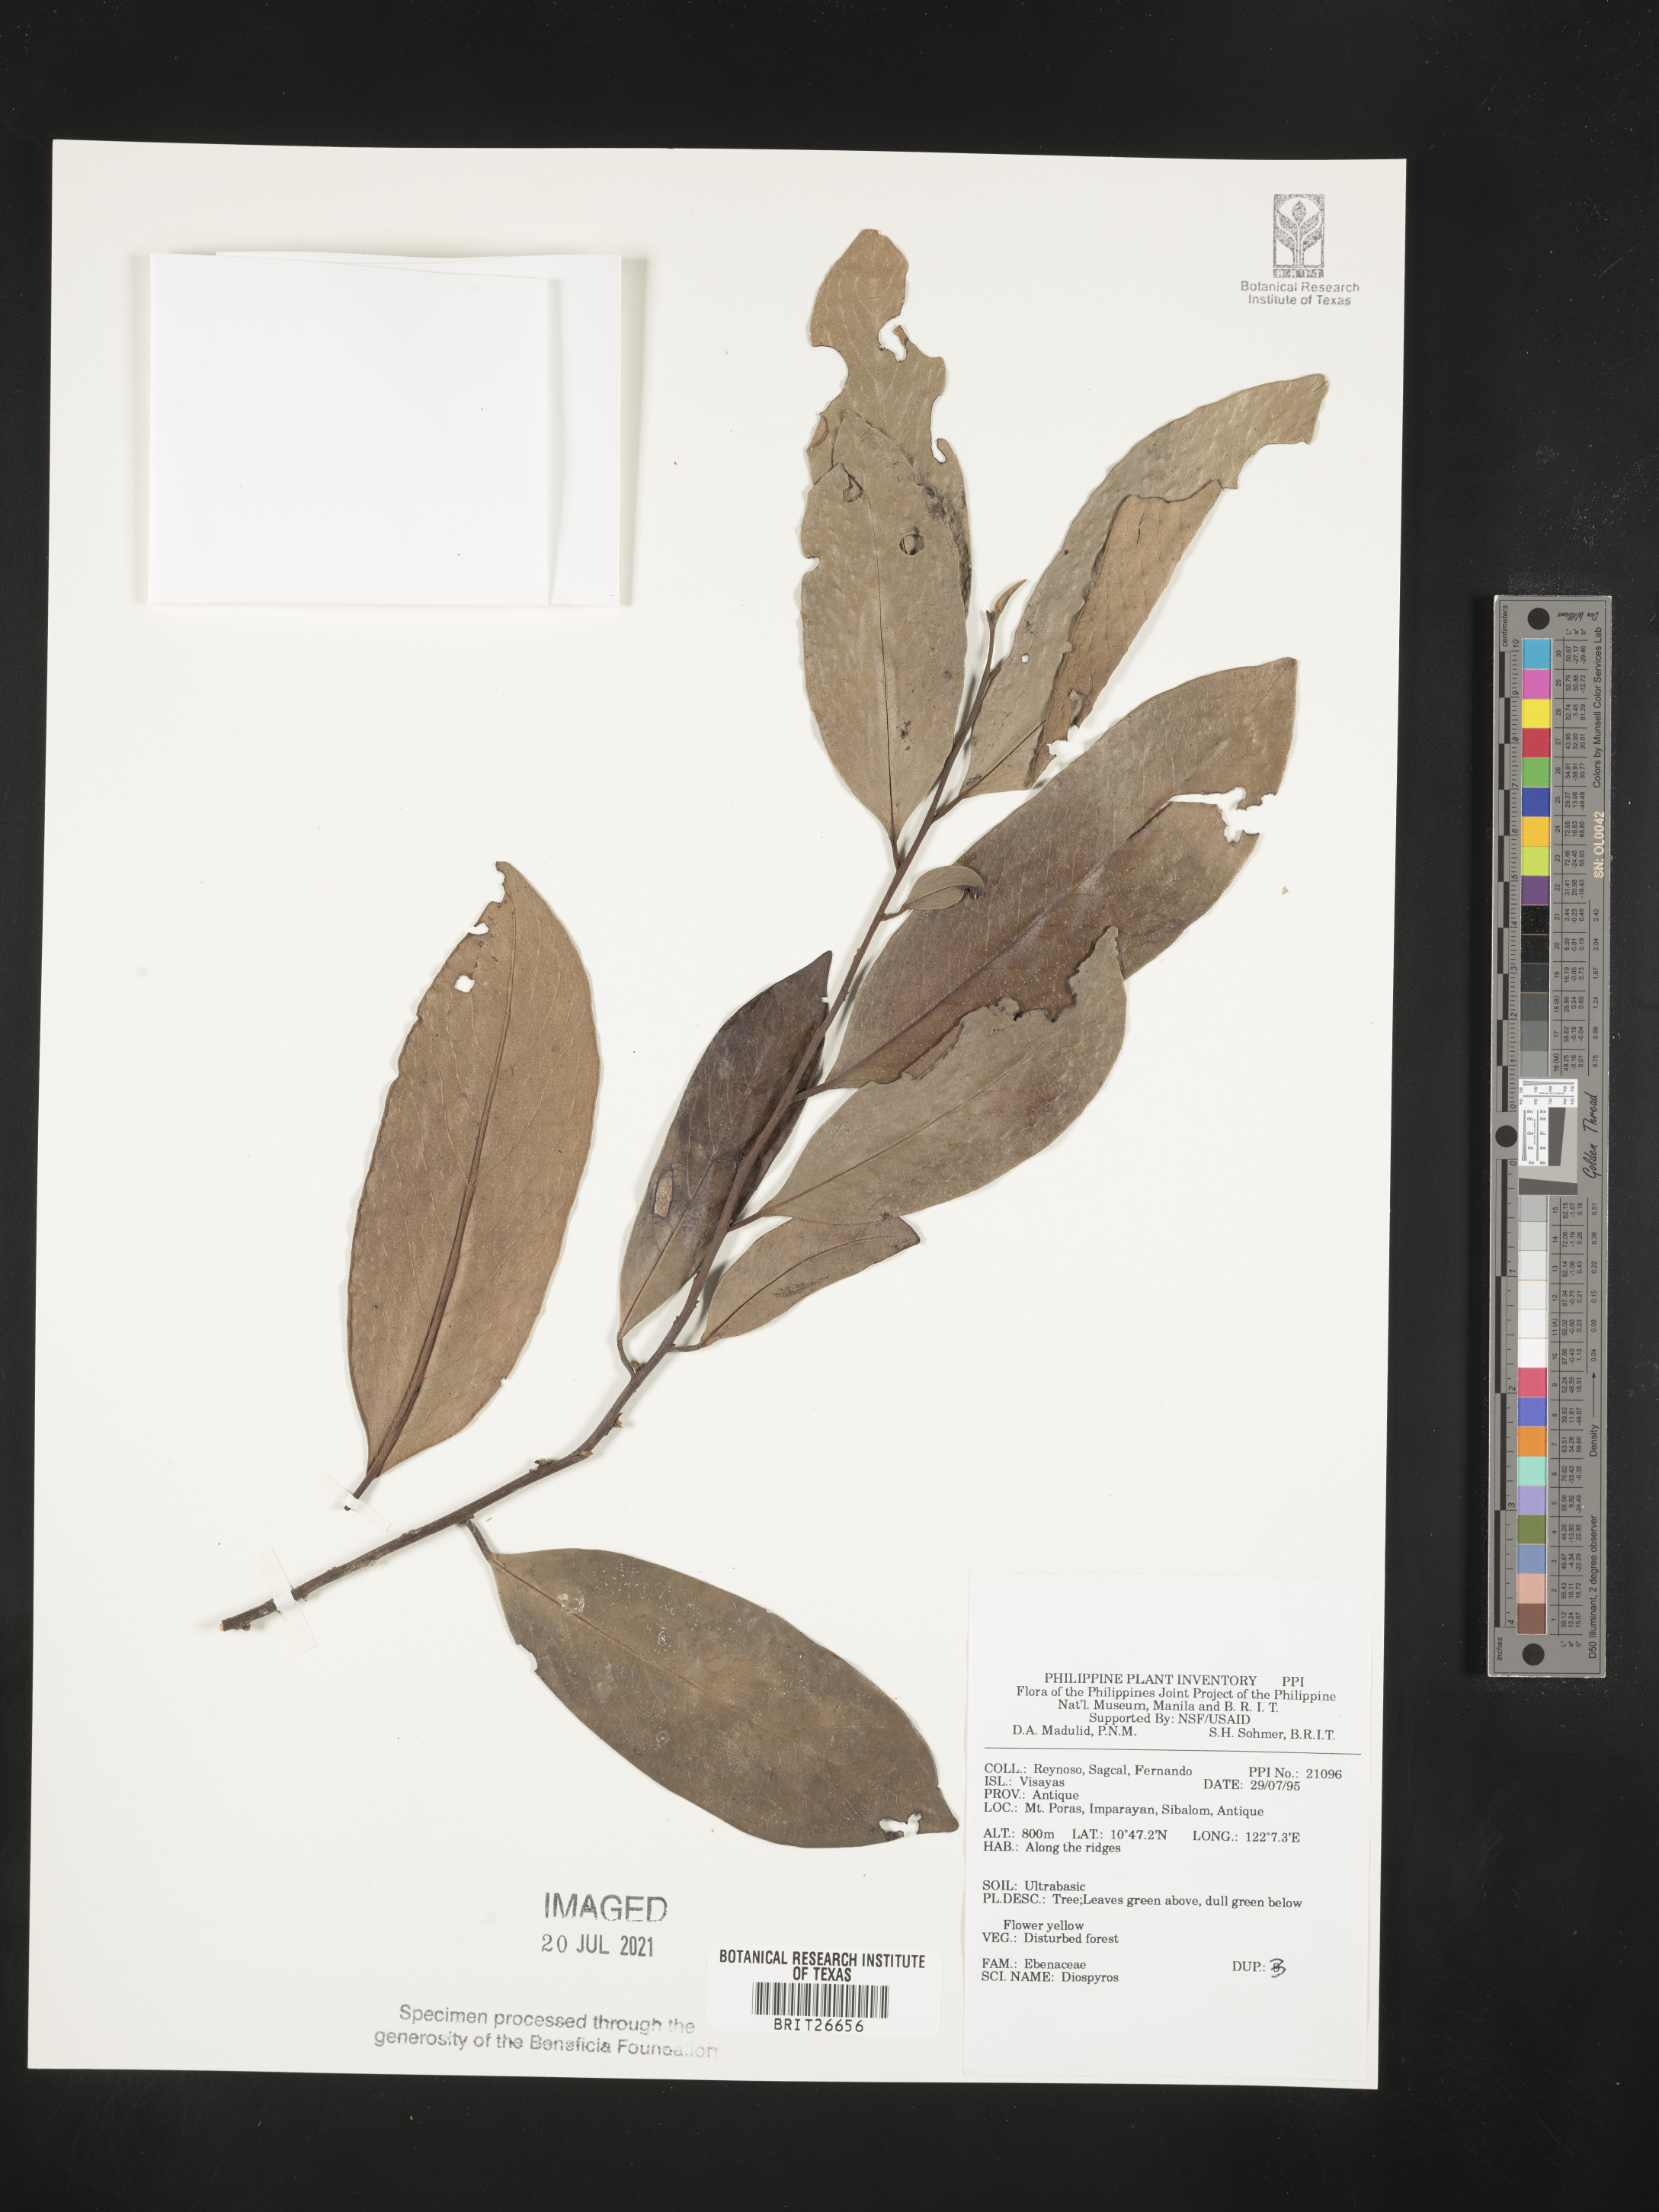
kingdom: Plantae
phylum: Tracheophyta
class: Magnoliopsida
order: Ericales
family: Ebenaceae
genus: Diospyros
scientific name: Diospyros
